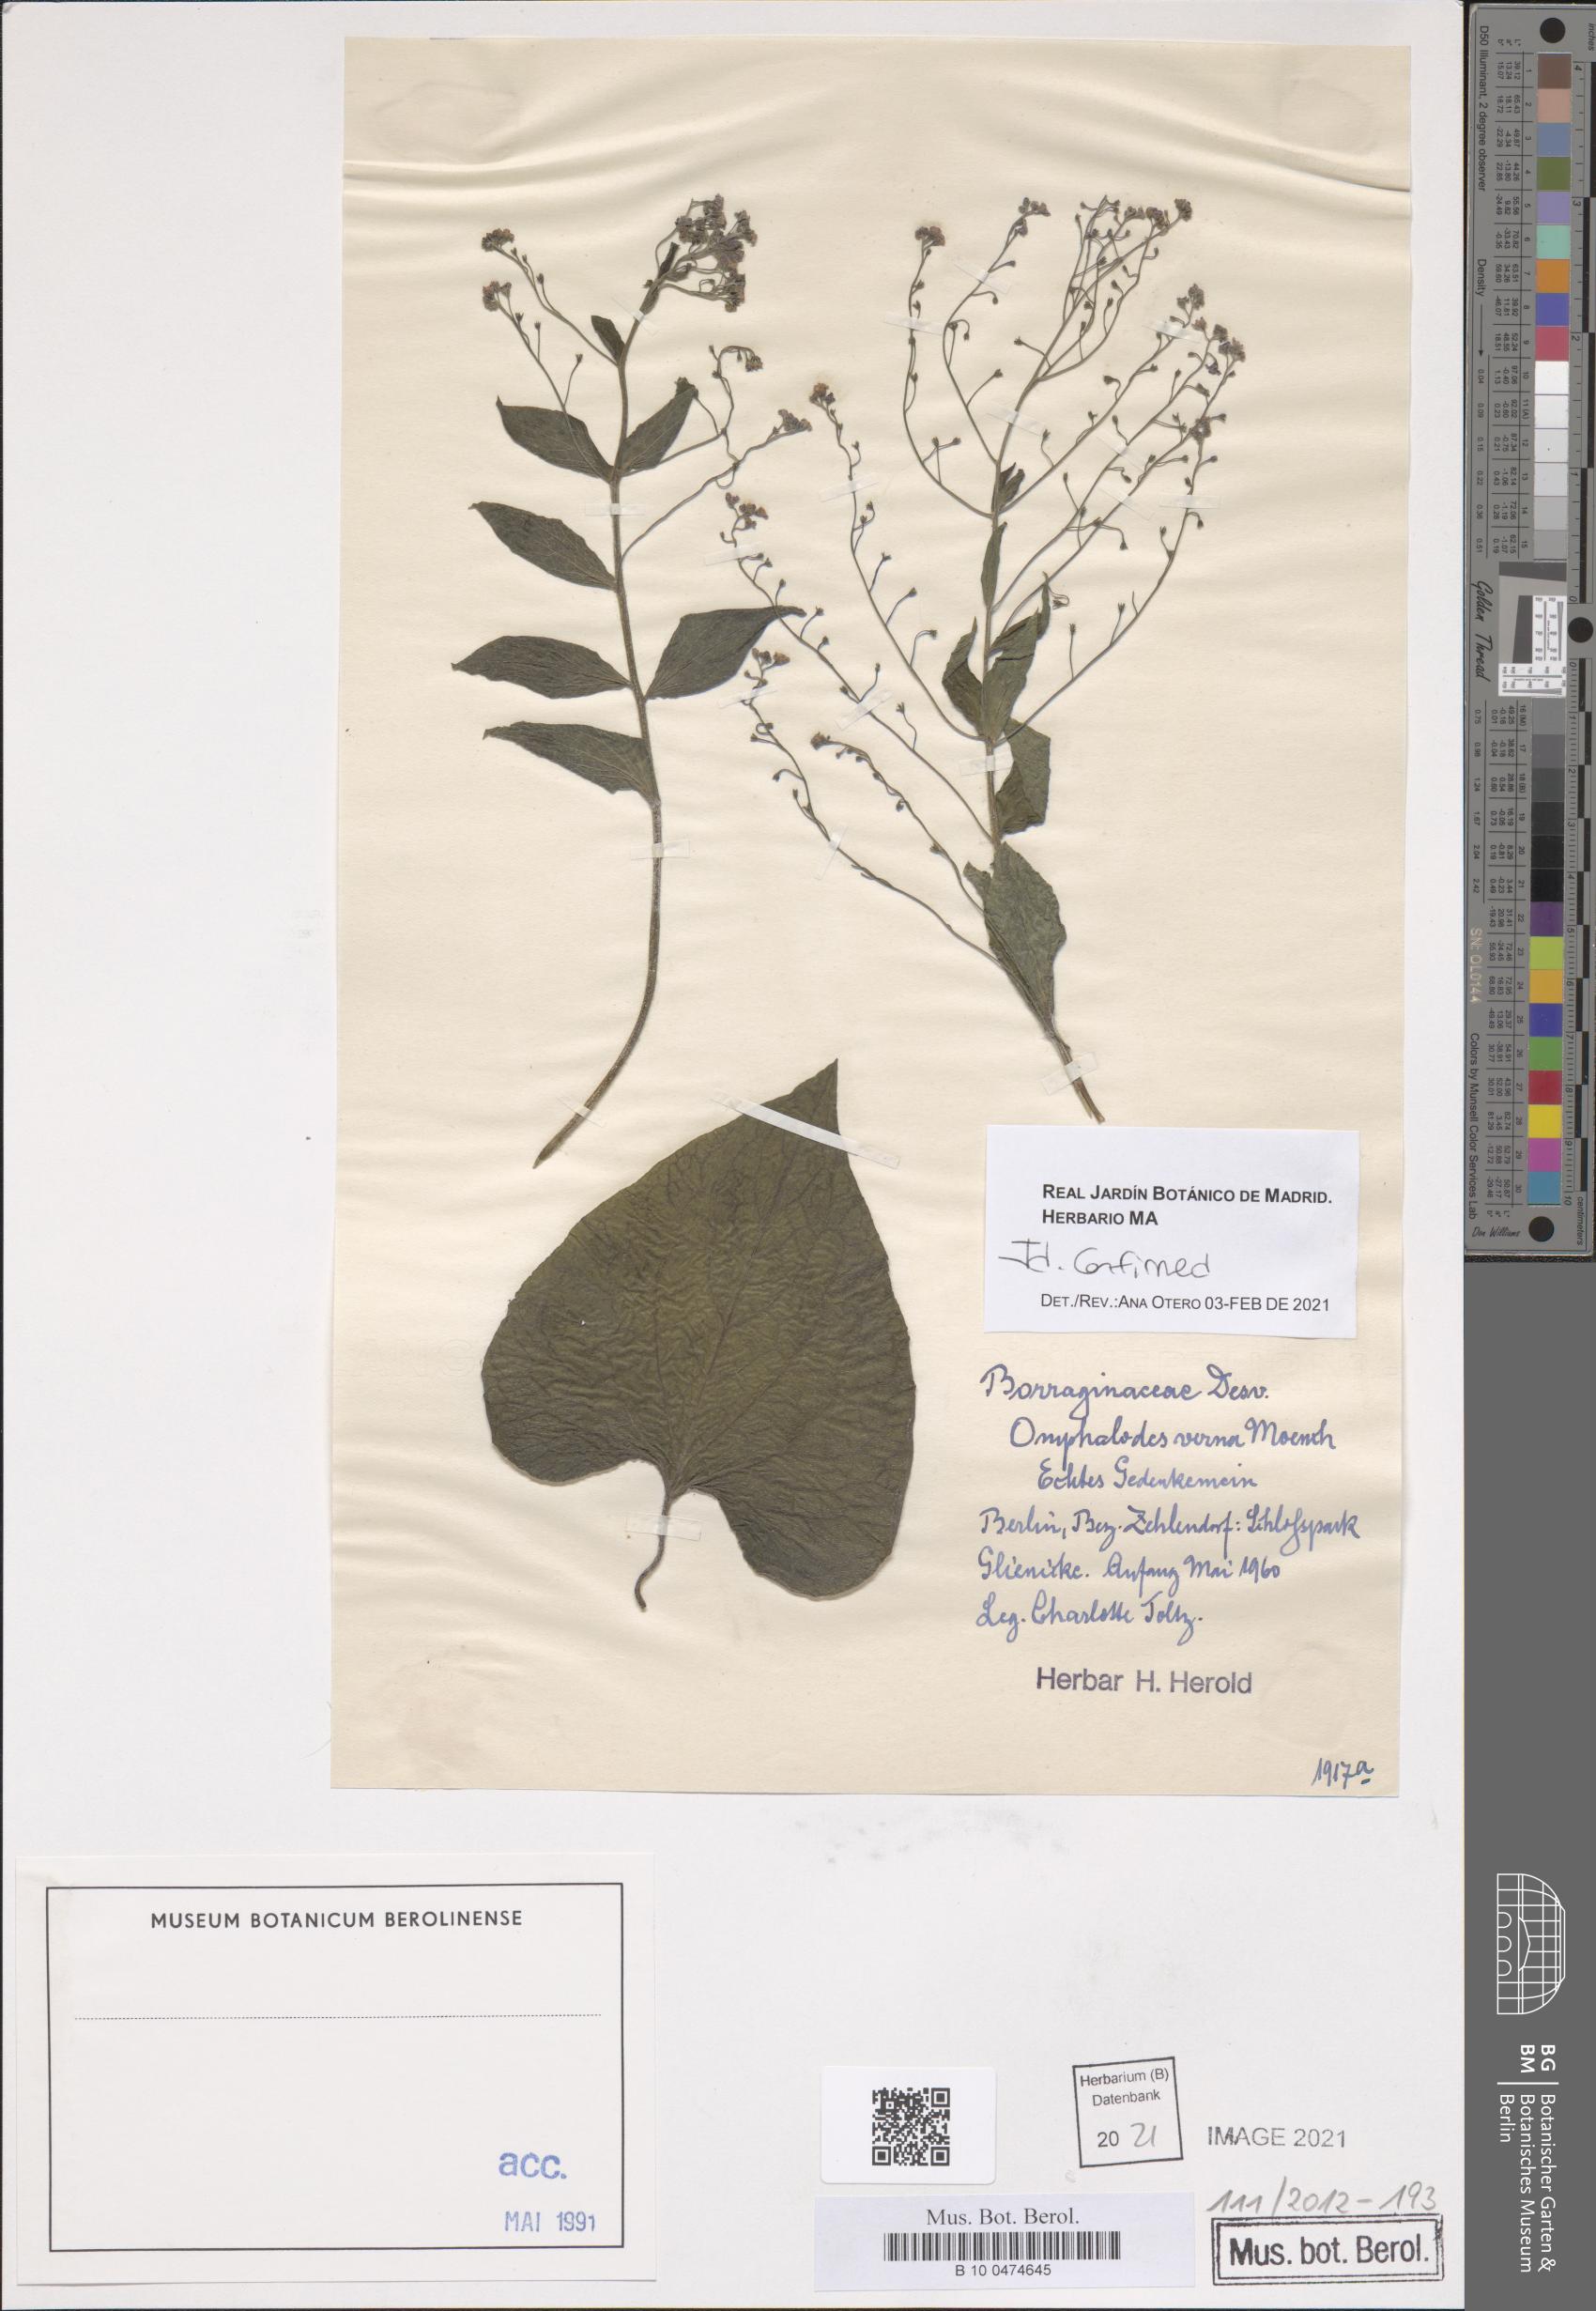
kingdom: Plantae
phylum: Tracheophyta
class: Magnoliopsida
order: Boraginales
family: Boraginaceae
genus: Omphalodes
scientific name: Omphalodes verna
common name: Blue-eyed-mary
